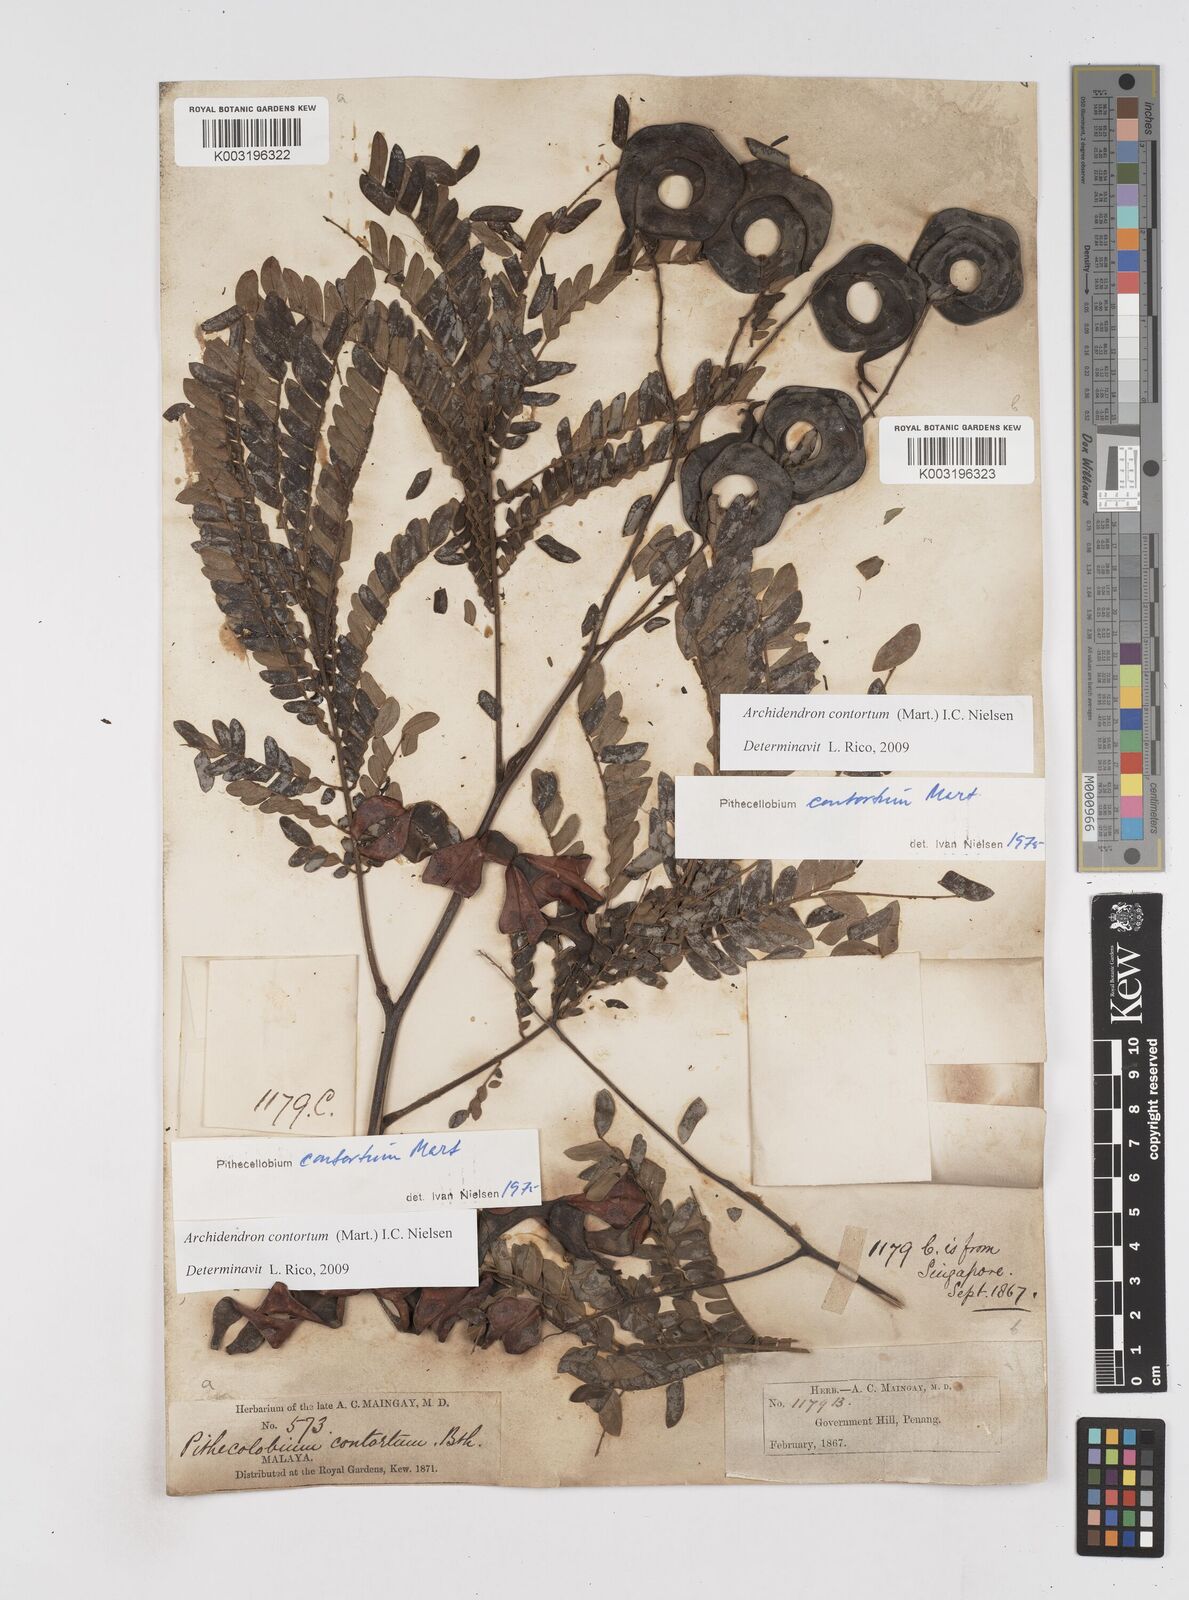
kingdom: Plantae
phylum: Tracheophyta
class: Magnoliopsida
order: Fabales
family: Fabaceae
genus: Archidendron
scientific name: Archidendron contortum
